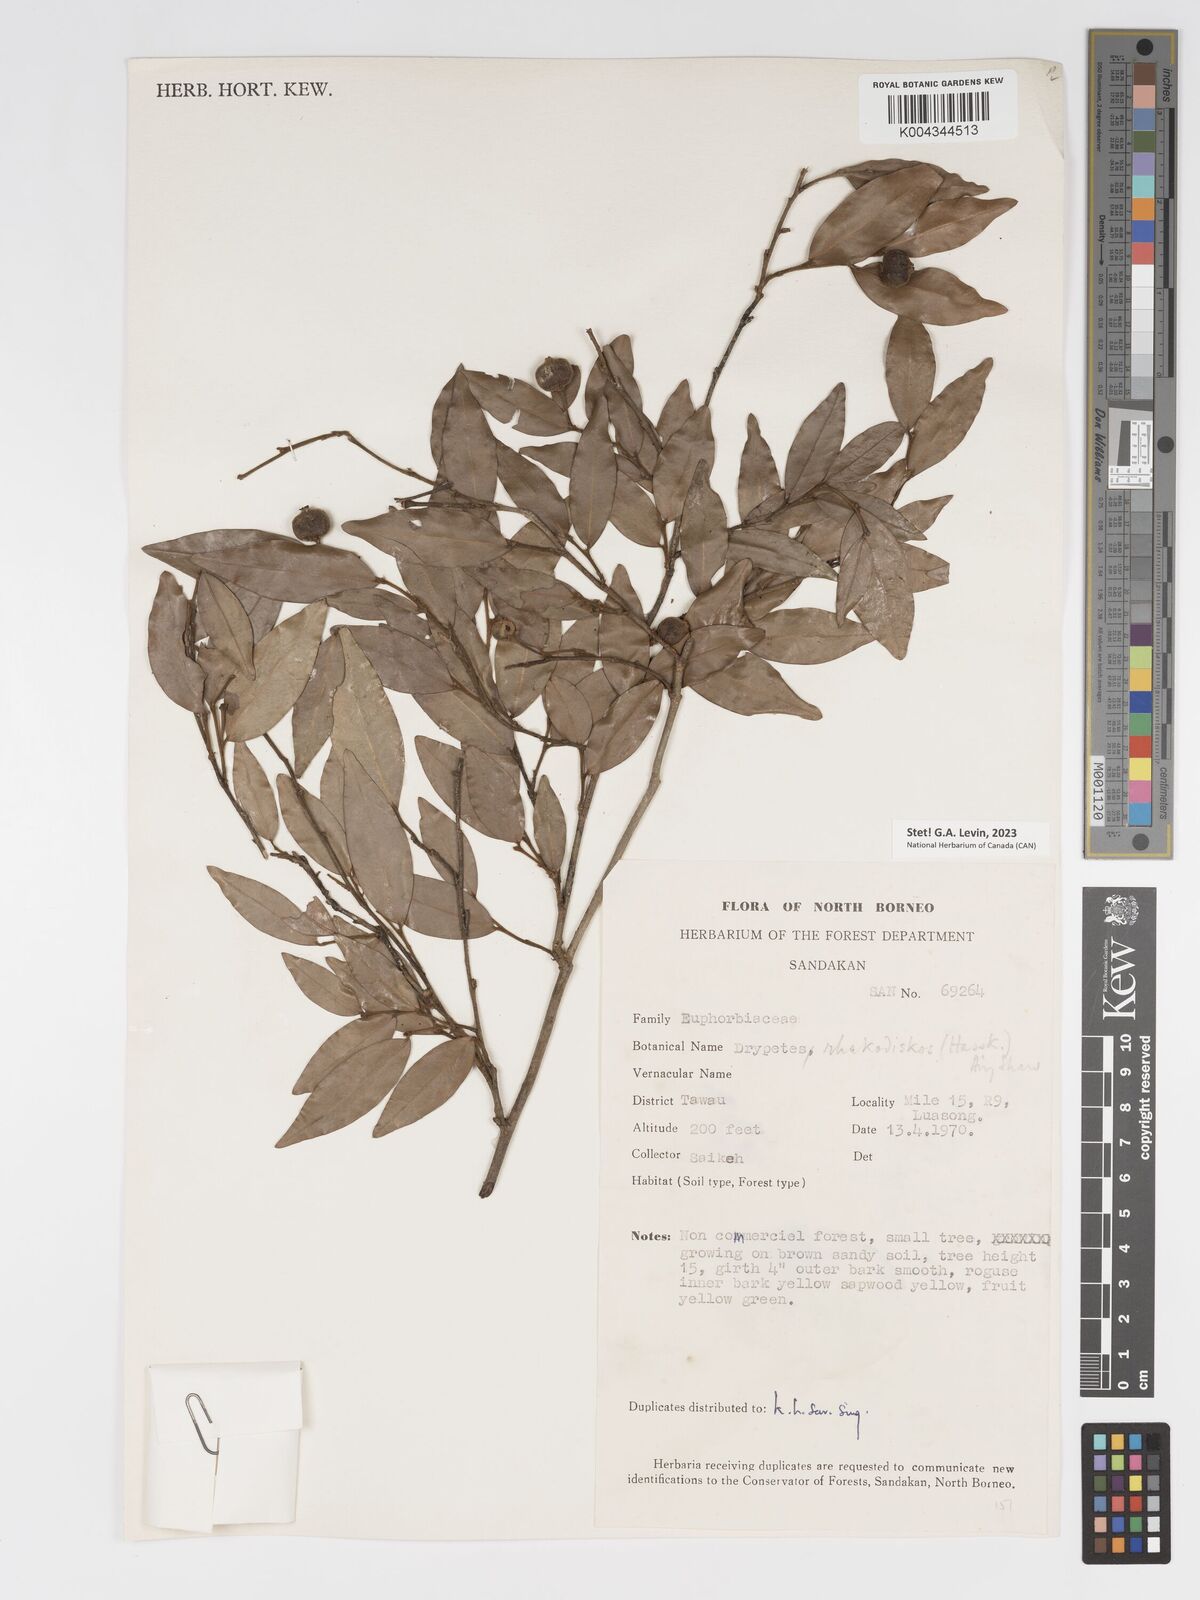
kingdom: Plantae
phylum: Tracheophyta
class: Magnoliopsida
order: Malpighiales
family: Putranjivaceae
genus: Drypetes
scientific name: Drypetes rhakodiskos
